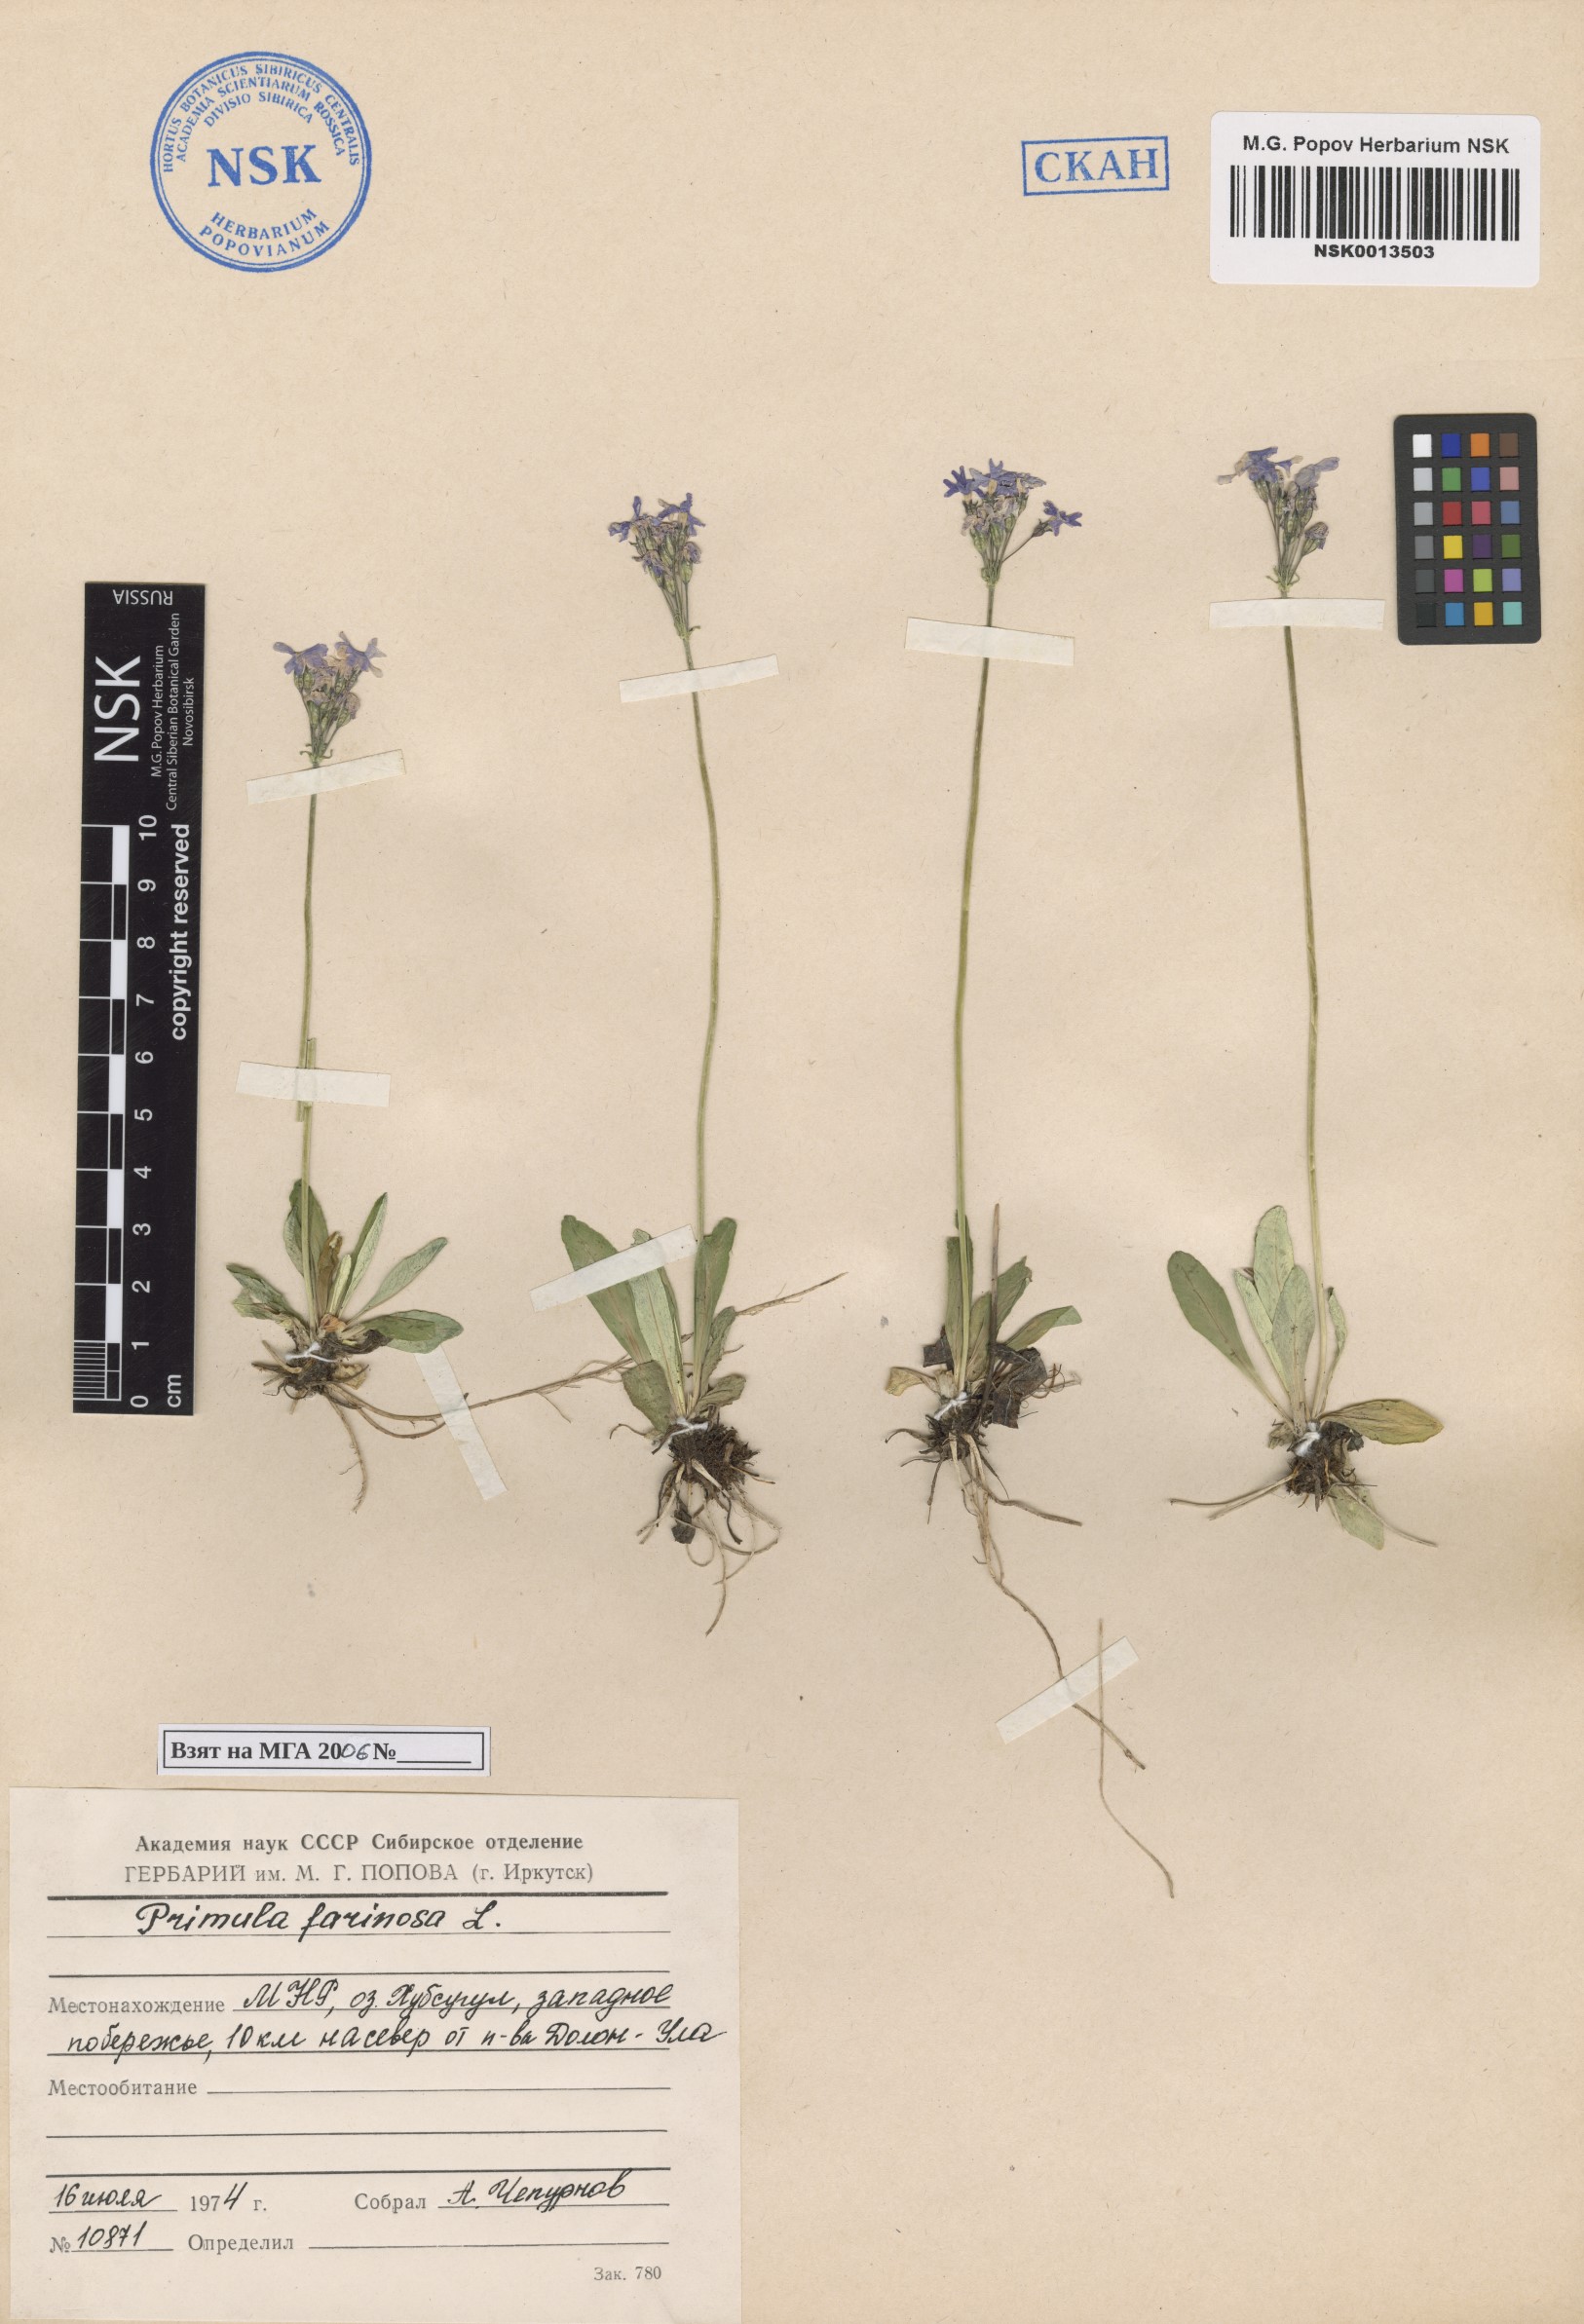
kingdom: Plantae
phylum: Tracheophyta
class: Magnoliopsida
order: Ericales
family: Primulaceae
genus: Primula
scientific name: Primula farinosa
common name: Bird's-eye primrose
